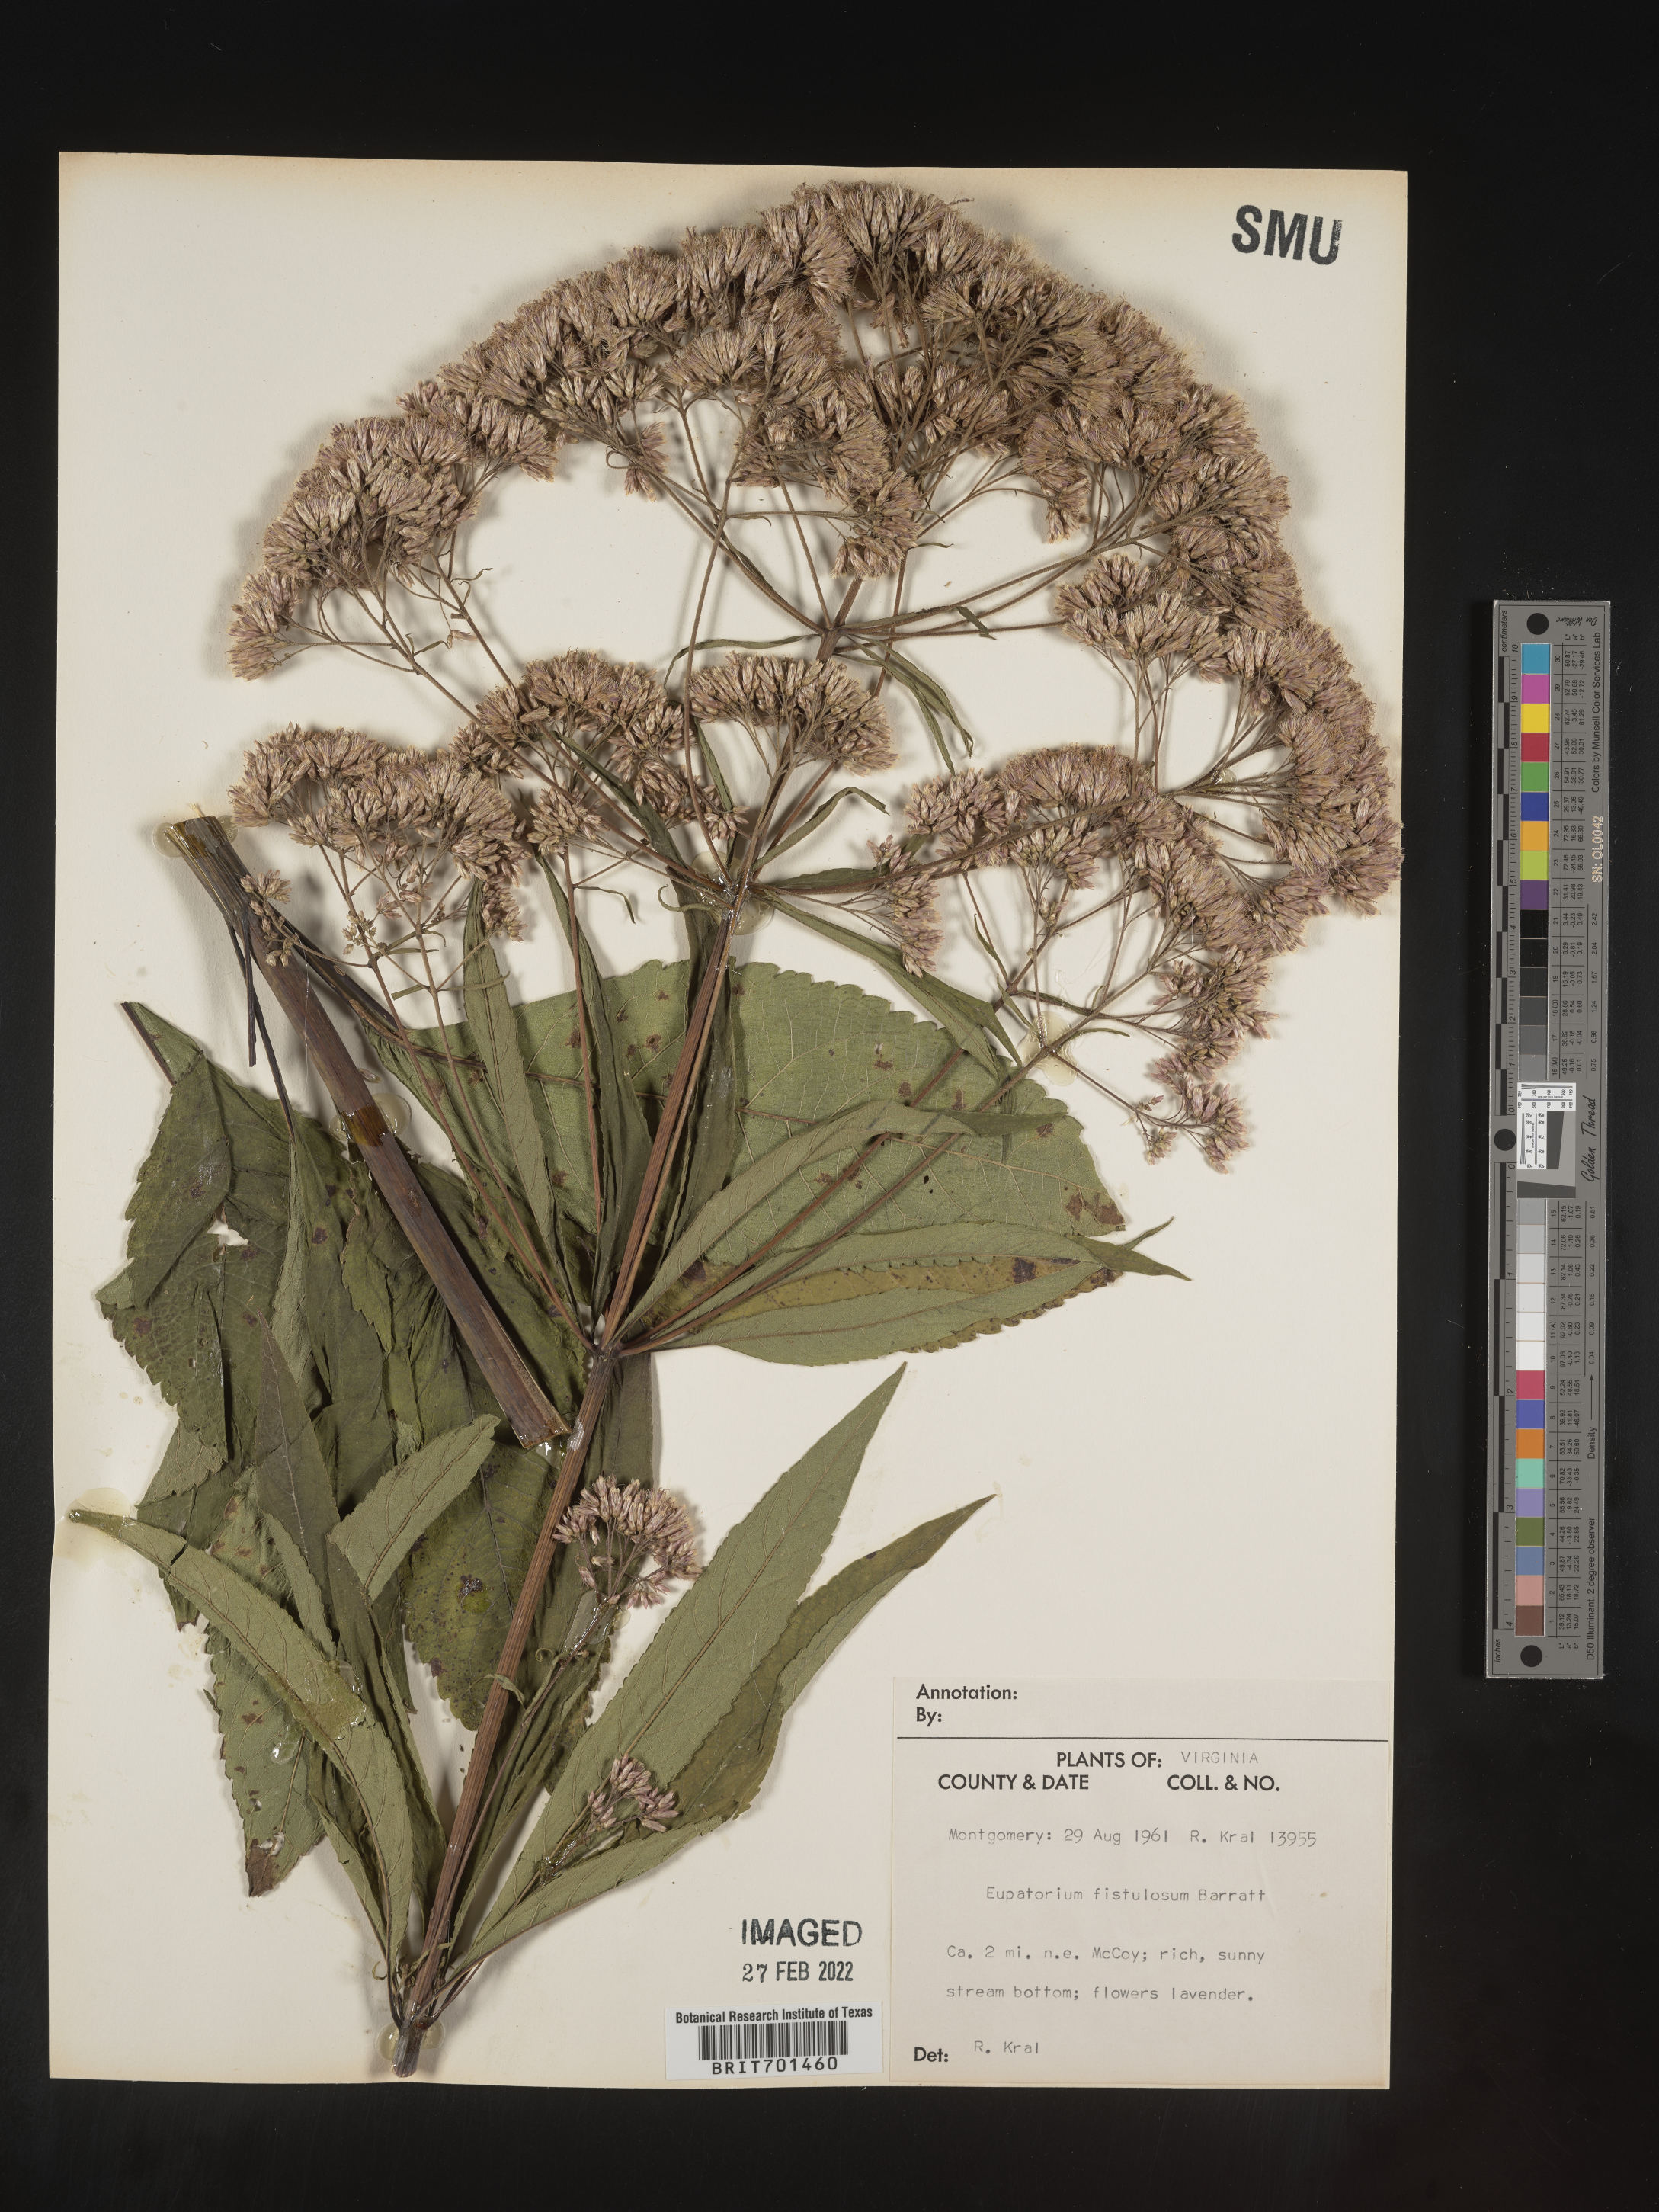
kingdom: Plantae
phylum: Tracheophyta
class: Magnoliopsida
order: Asterales
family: Asteraceae
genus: Eutrochium
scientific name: Eutrochium fistulosum
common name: Trumpetweed
